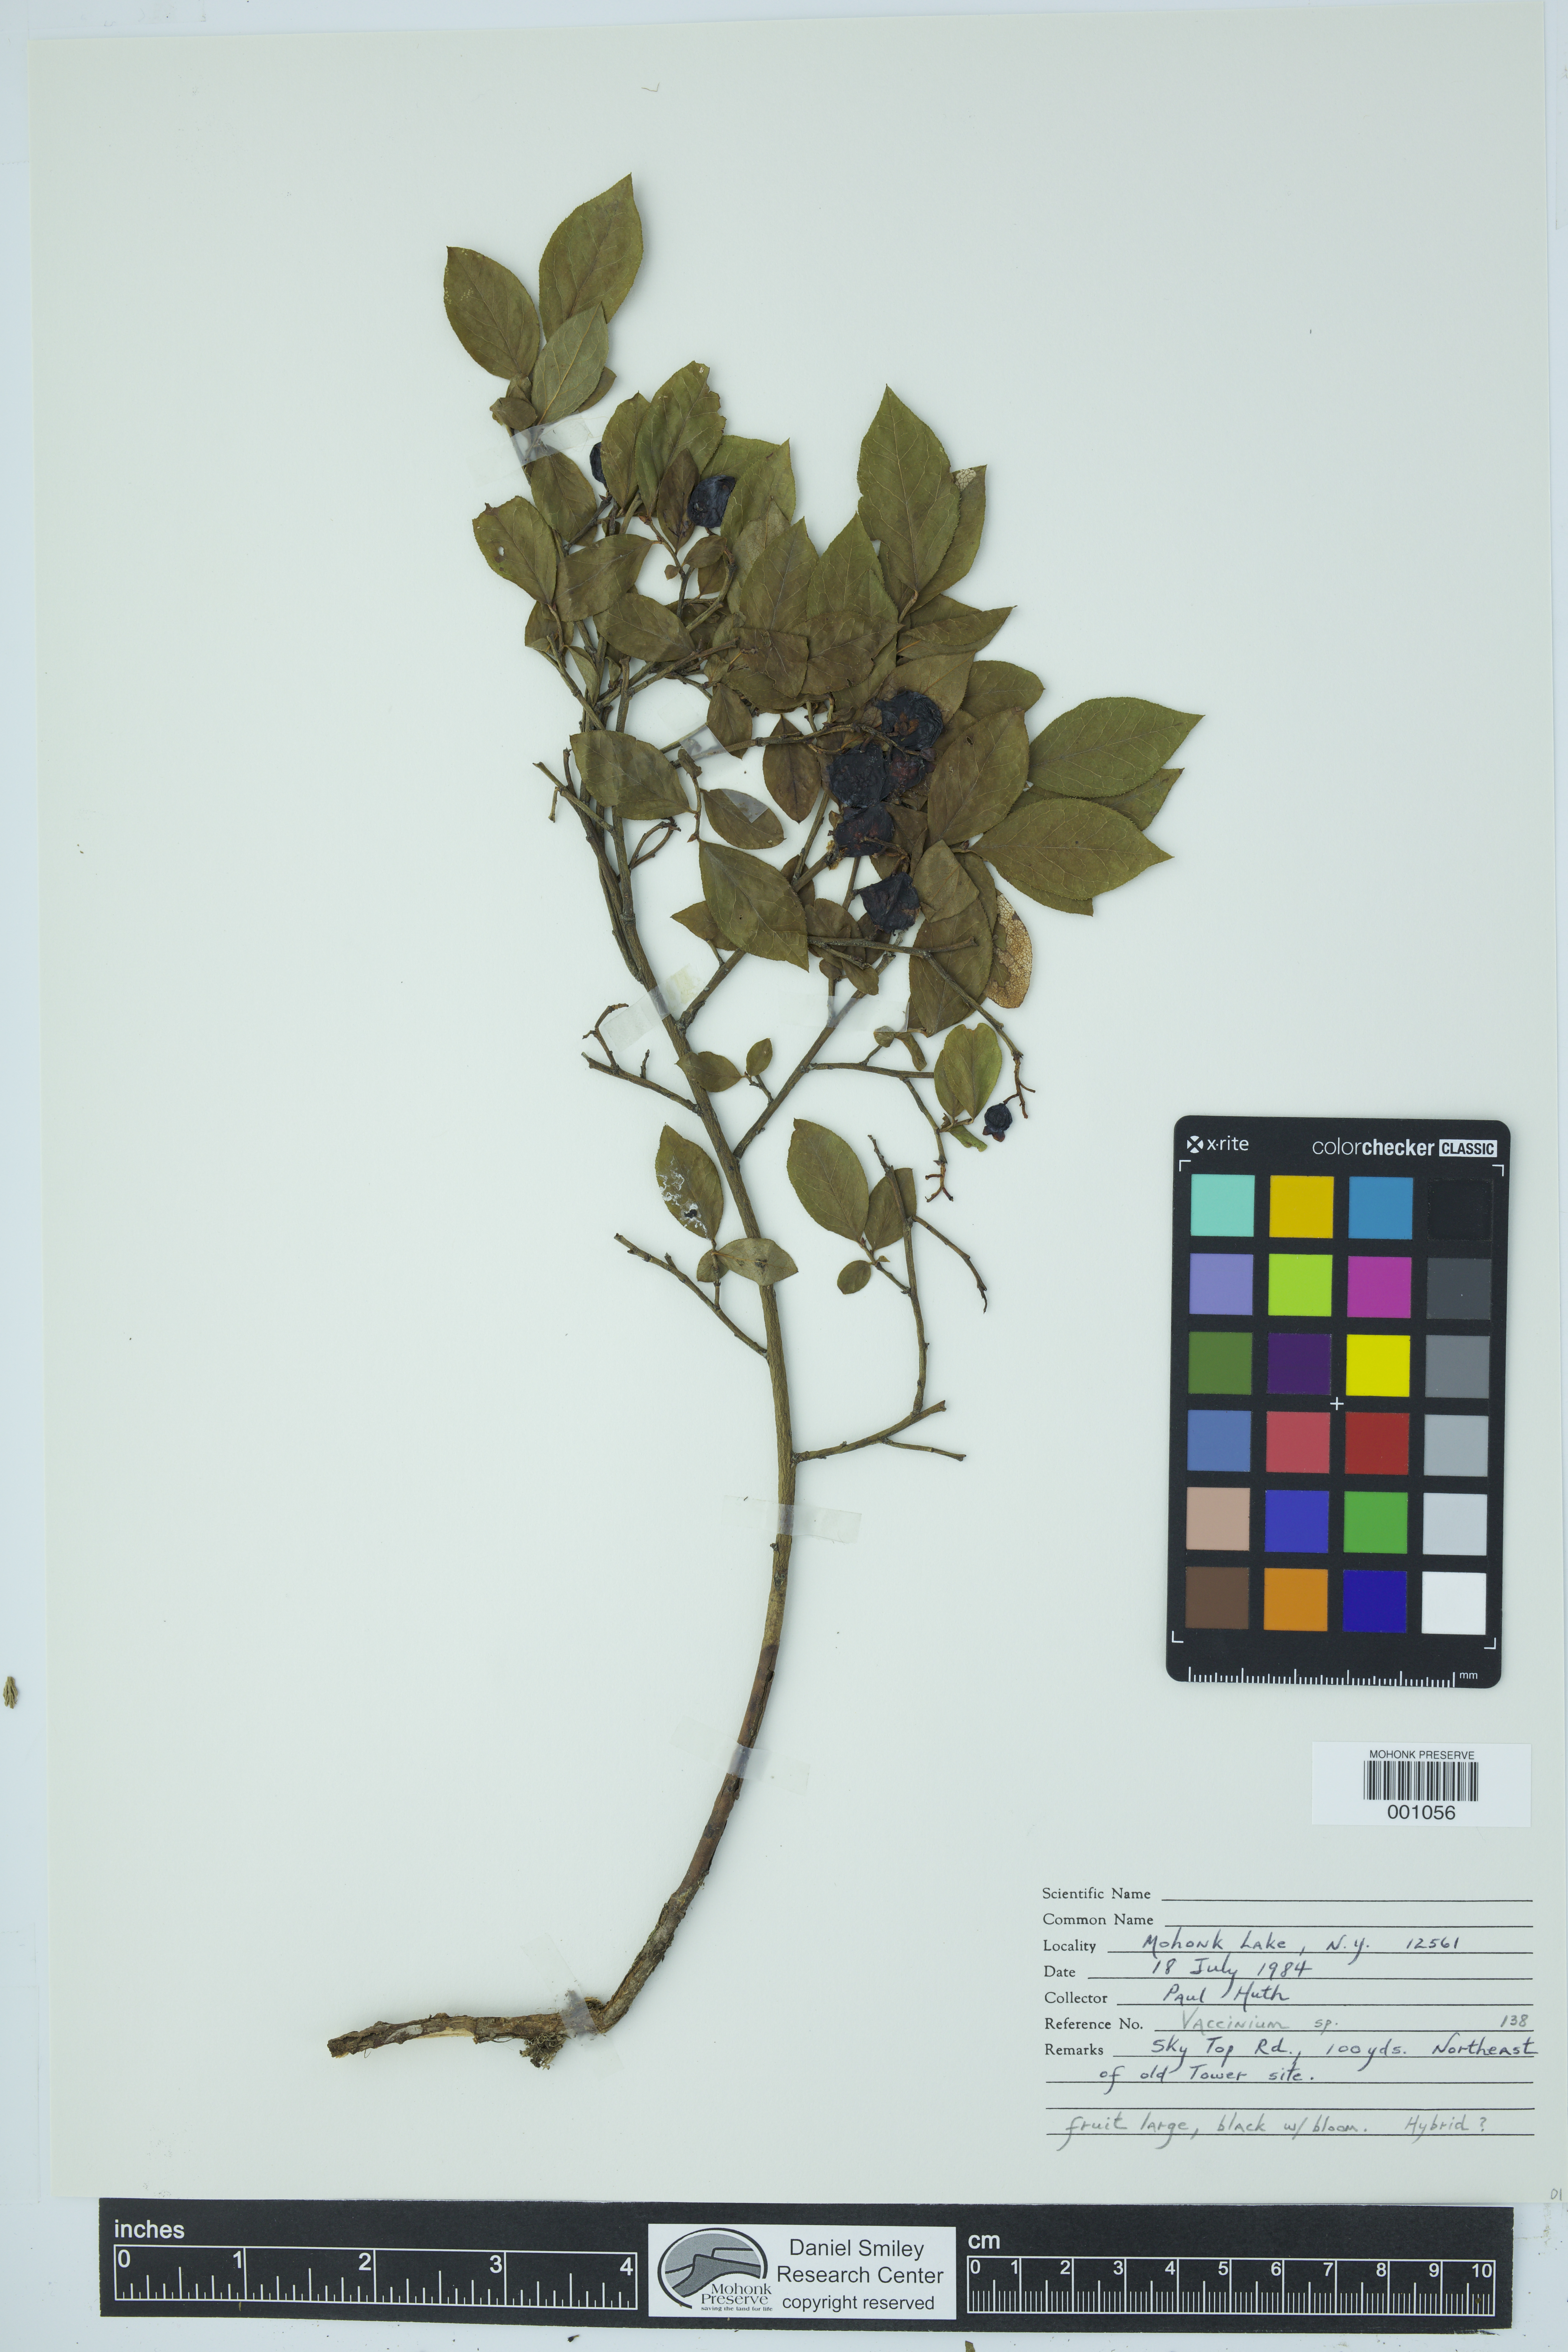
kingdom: Plantae
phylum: Tracheophyta
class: Magnoliopsida
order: Ericales
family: Ericaceae
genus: Vaccinium
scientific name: Vaccinium
